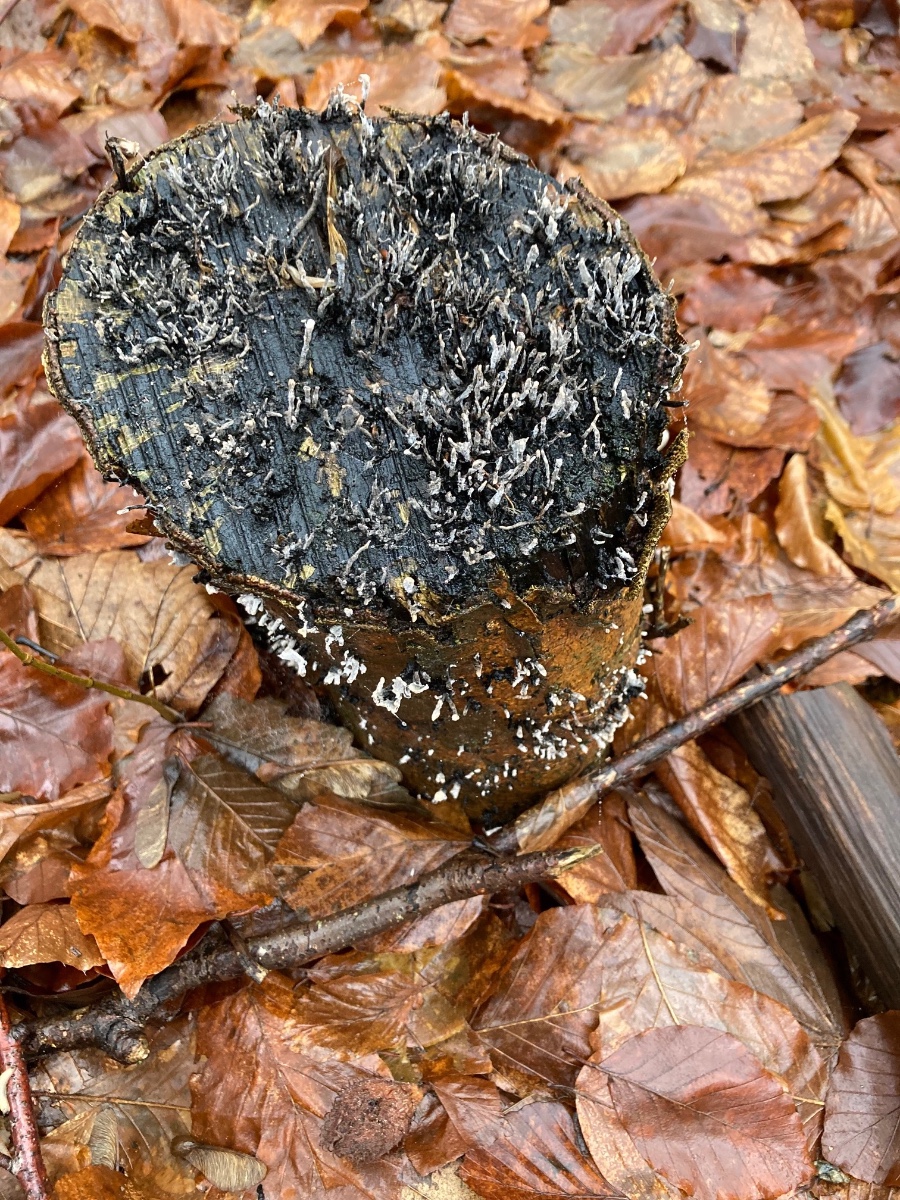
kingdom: Fungi
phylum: Ascomycota
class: Sordariomycetes
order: Xylariales
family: Xylariaceae
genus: Xylaria
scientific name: Xylaria hypoxylon
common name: grenet stødsvamp
